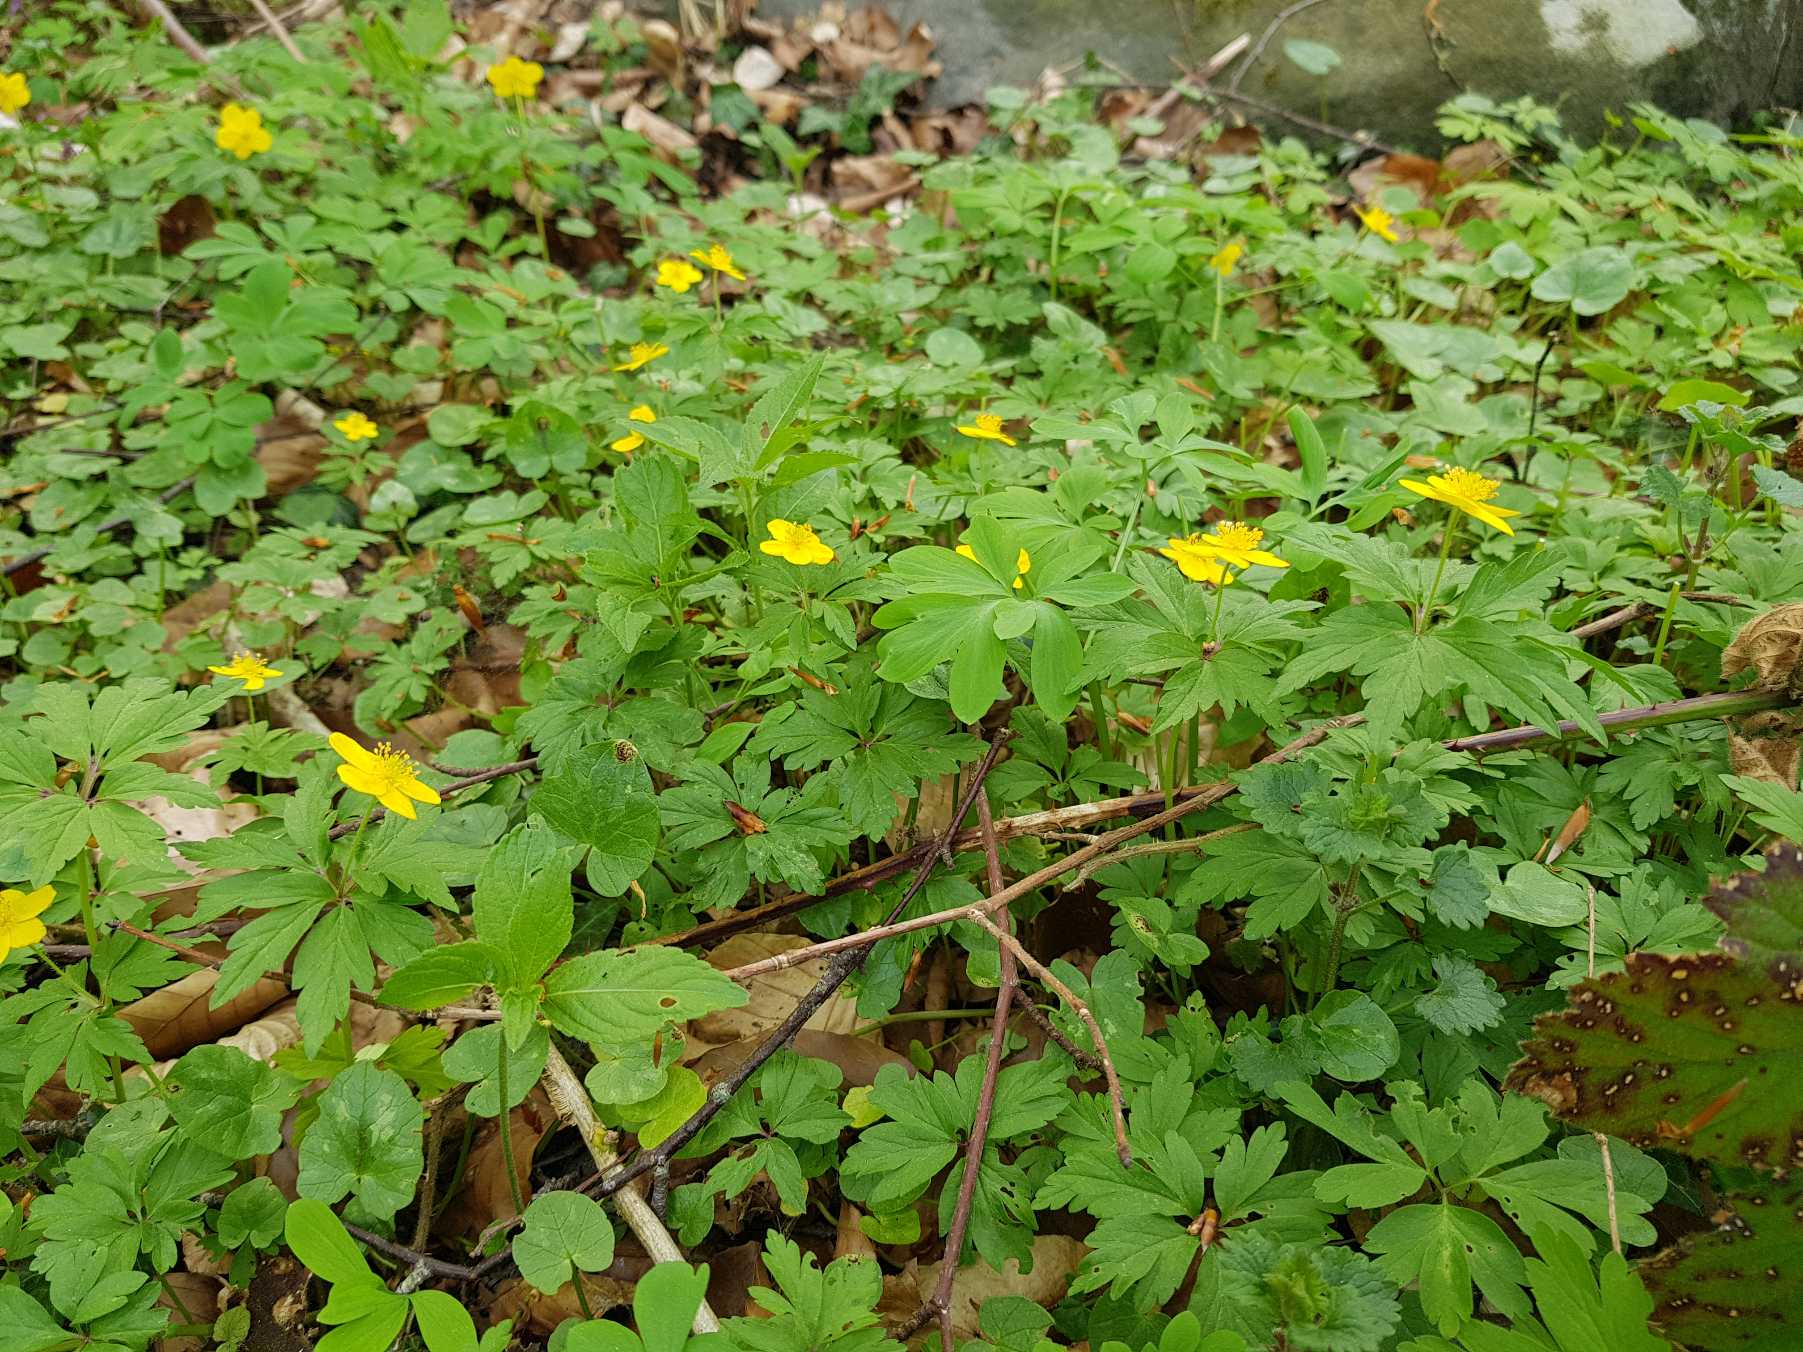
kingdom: Plantae
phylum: Tracheophyta
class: Magnoliopsida
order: Ranunculales
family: Ranunculaceae
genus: Anemone
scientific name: Anemone ranunculoides
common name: Gul anemone
